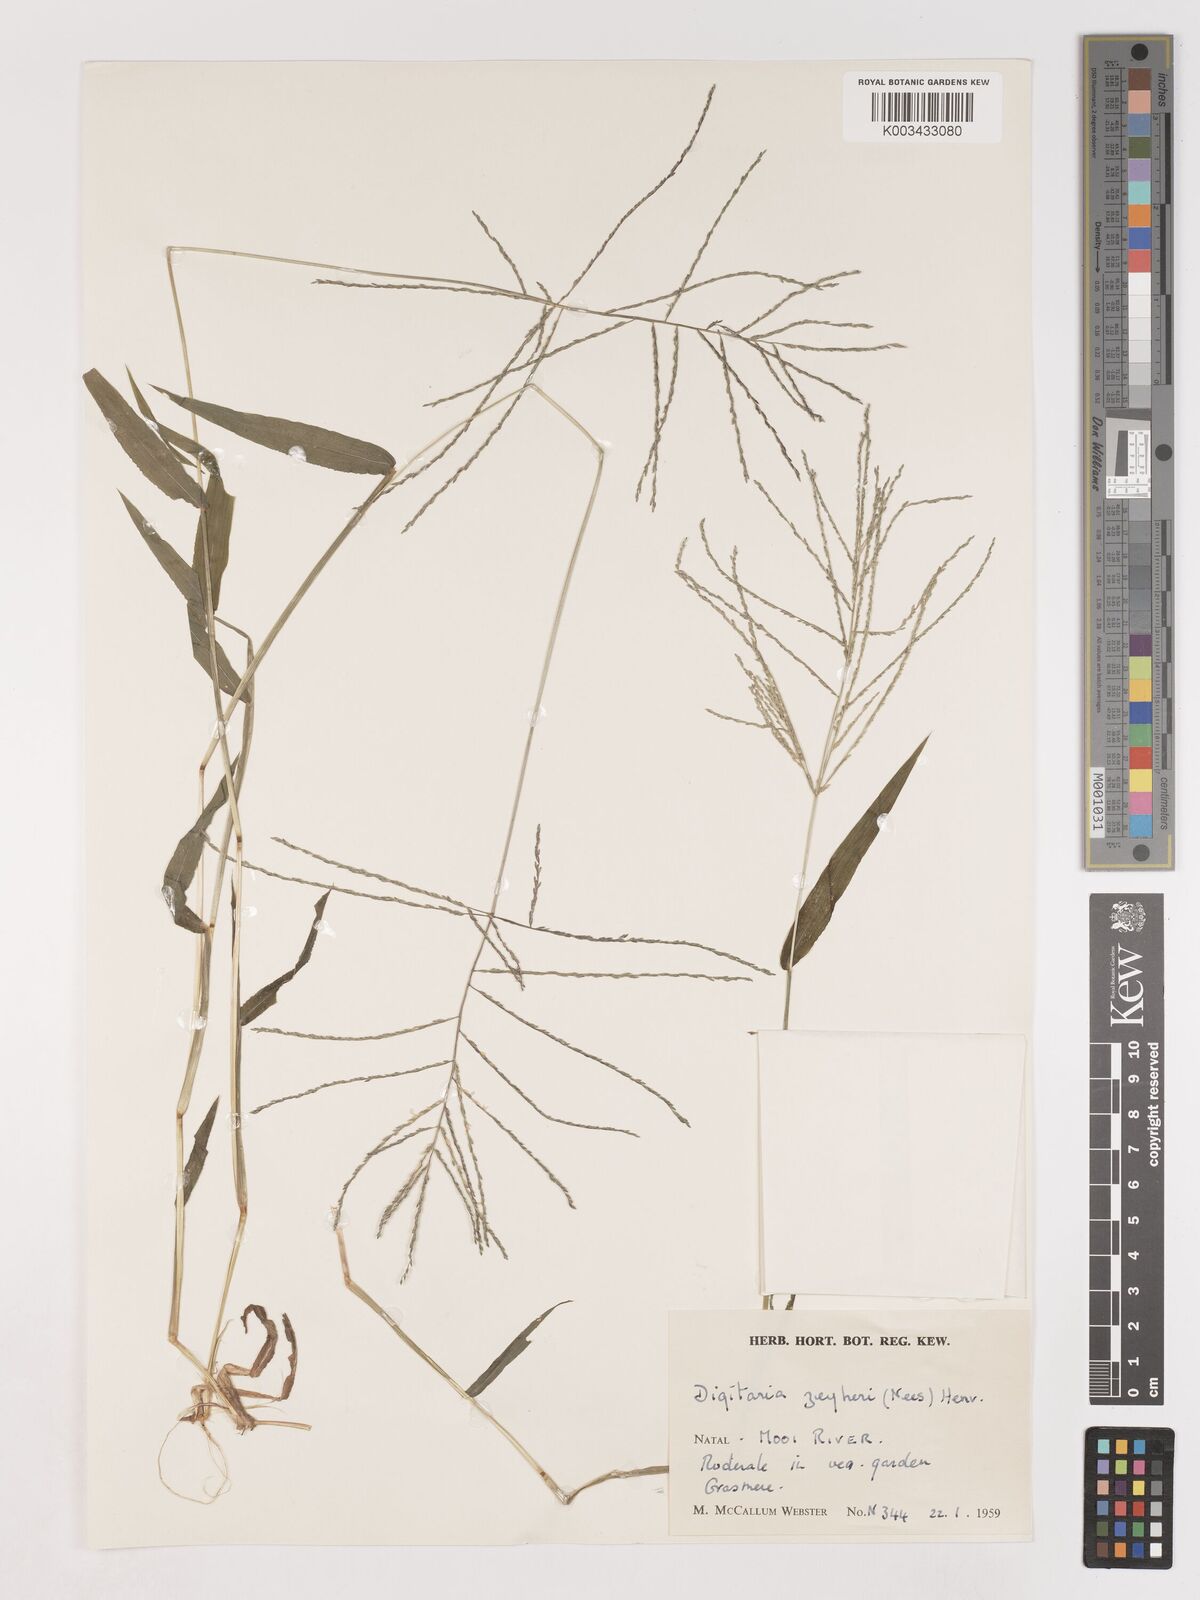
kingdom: Plantae
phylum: Tracheophyta
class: Liliopsida
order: Poales
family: Poaceae
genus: Digitaria
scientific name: Digitaria velutina
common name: Long-plume finger grass
